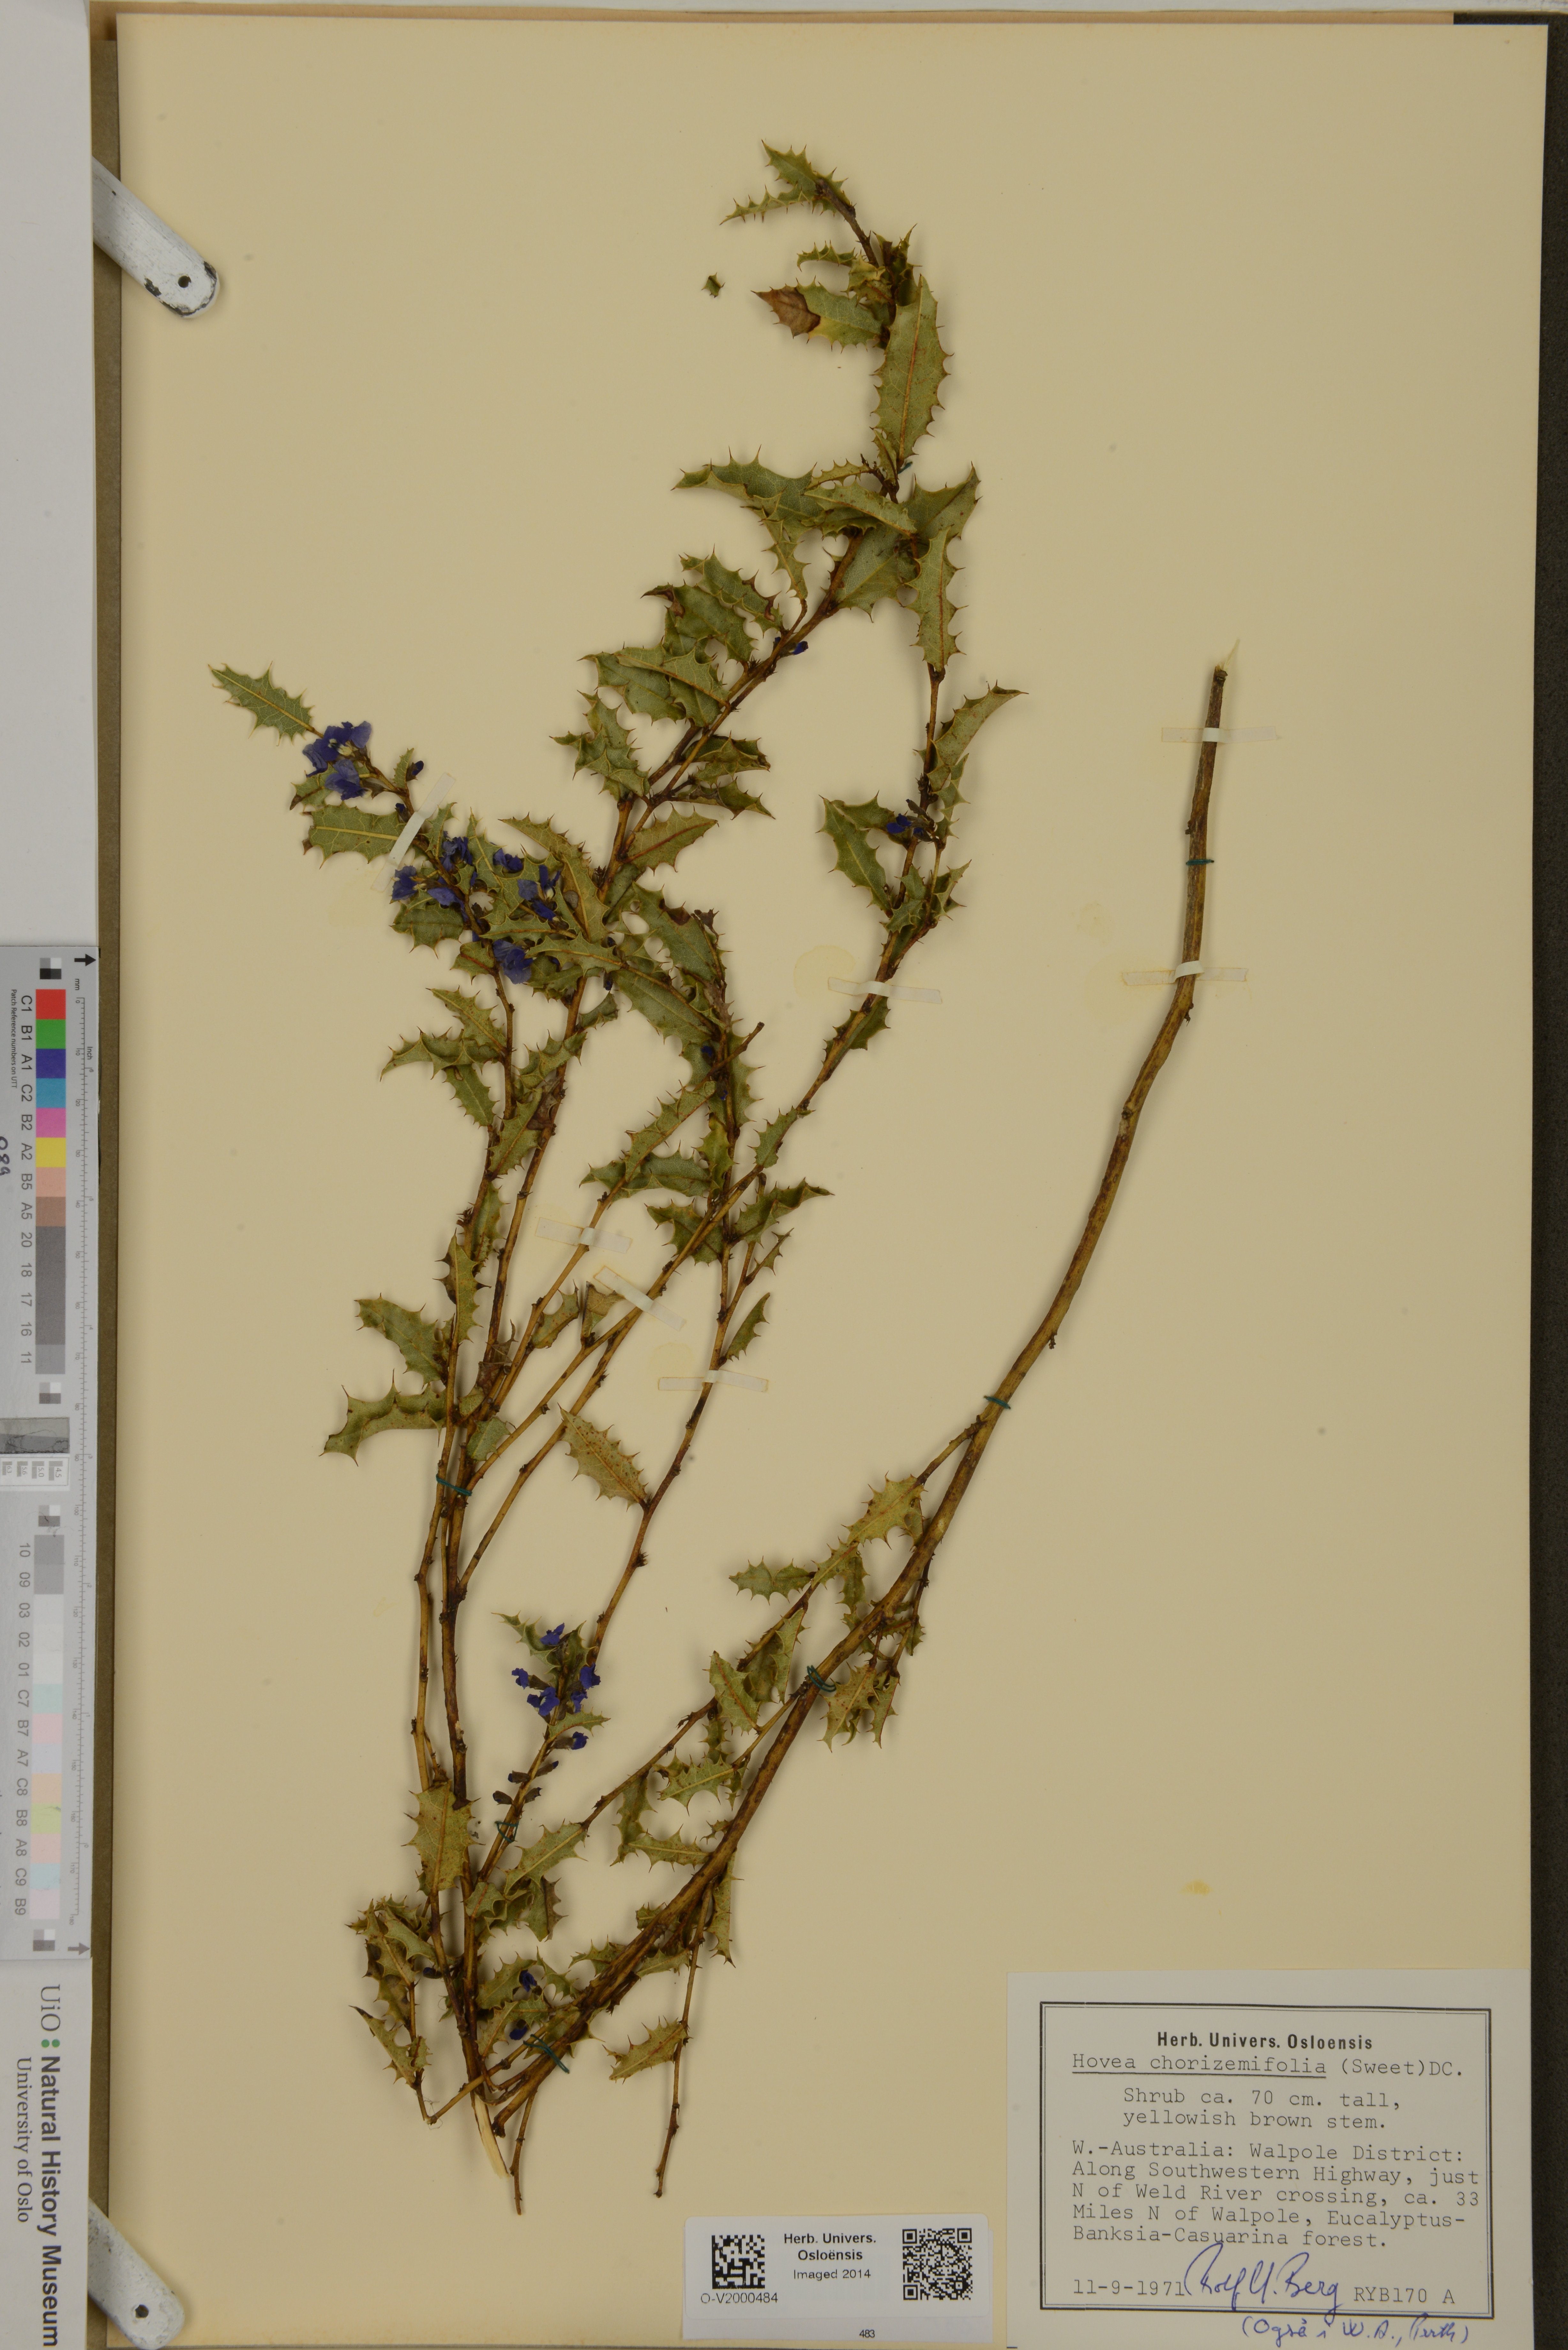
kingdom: Plantae
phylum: Tracheophyta
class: Magnoliopsida
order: Fabales
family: Fabaceae
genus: Hovea
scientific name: Hovea chorizemifolia
